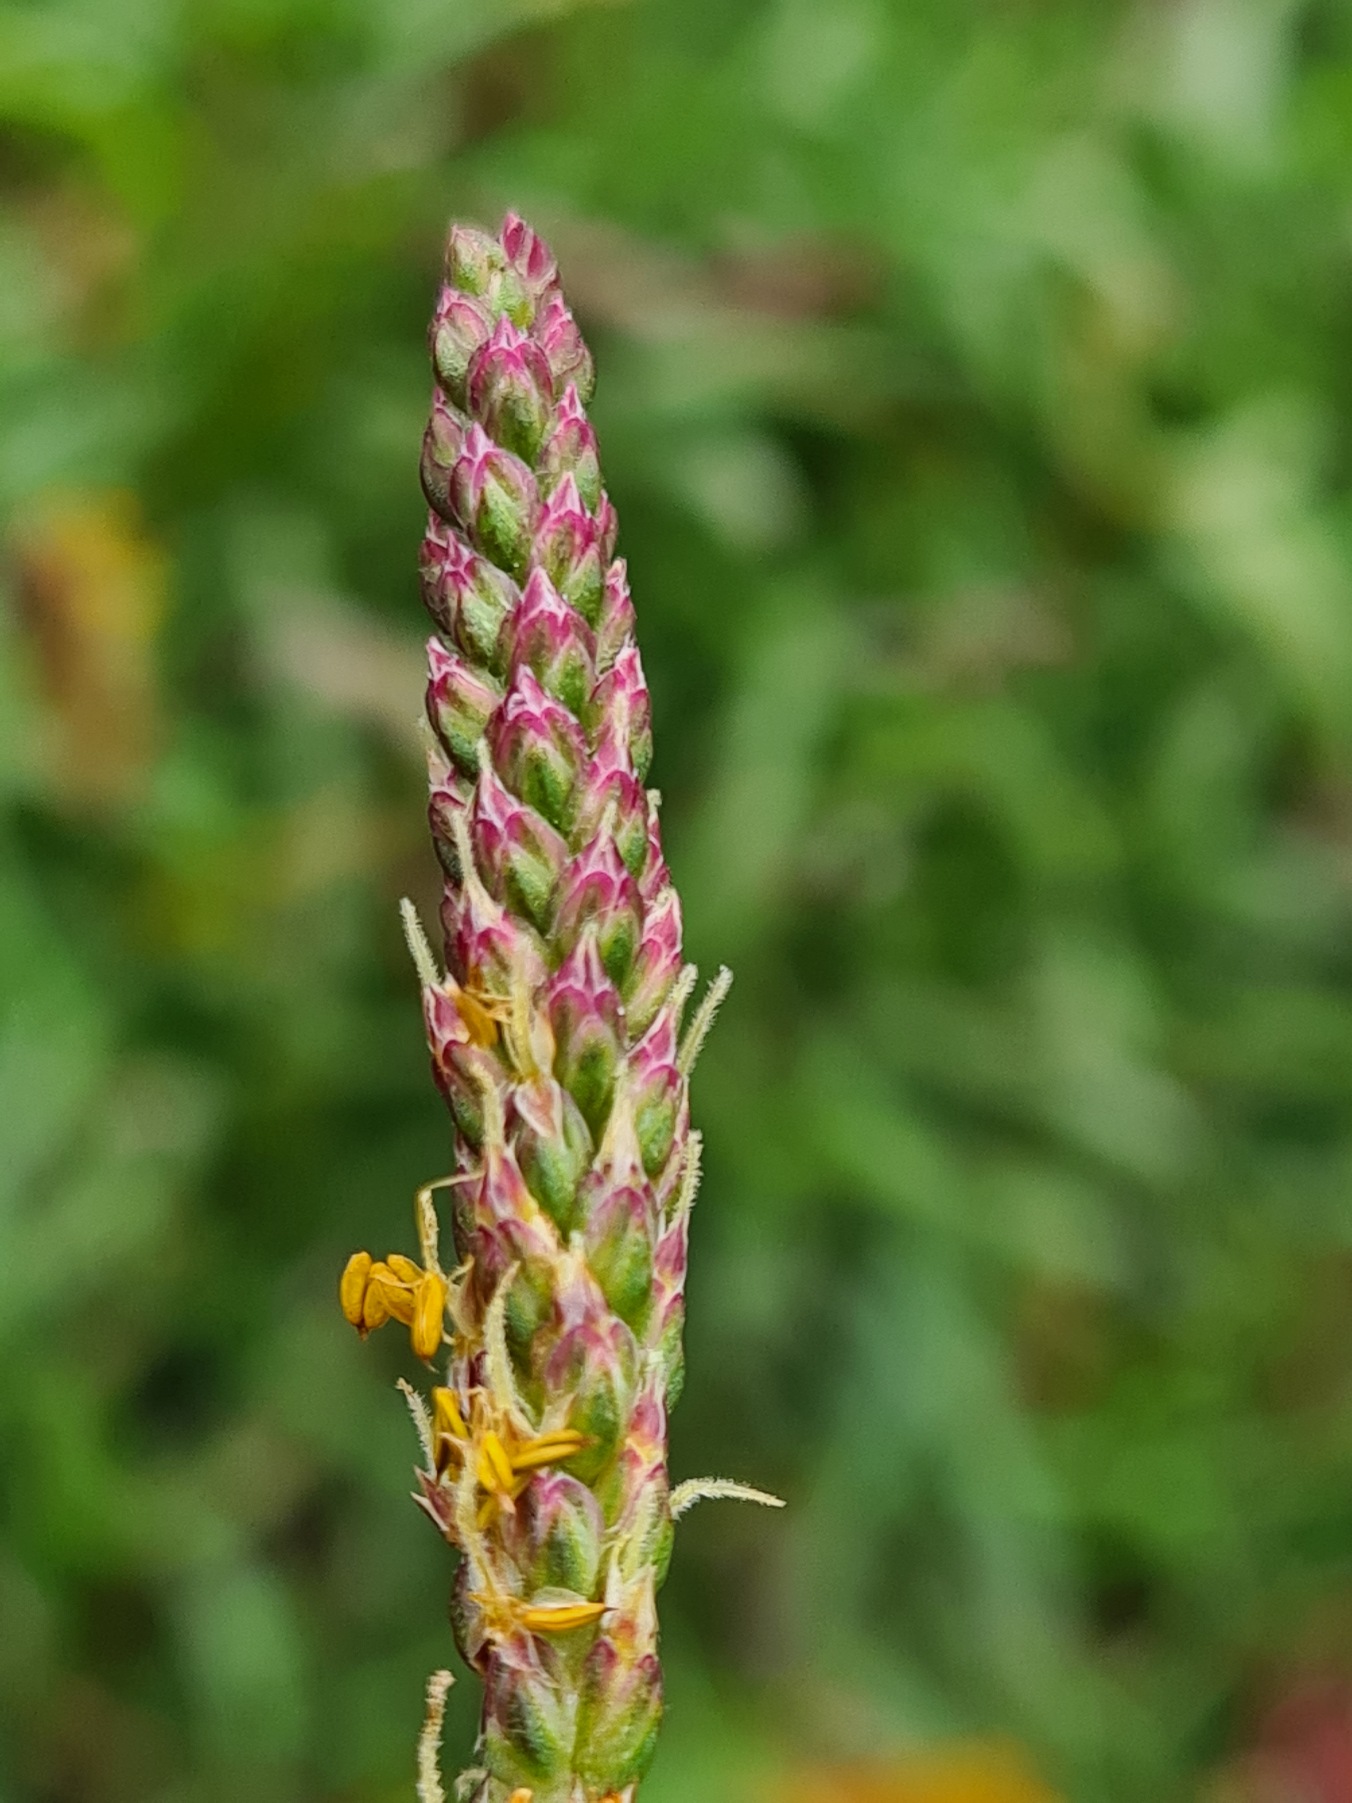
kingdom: Plantae
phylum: Tracheophyta
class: Magnoliopsida
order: Lamiales
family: Plantaginaceae
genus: Plantago
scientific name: Plantago maritima
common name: Strand-vejbred
